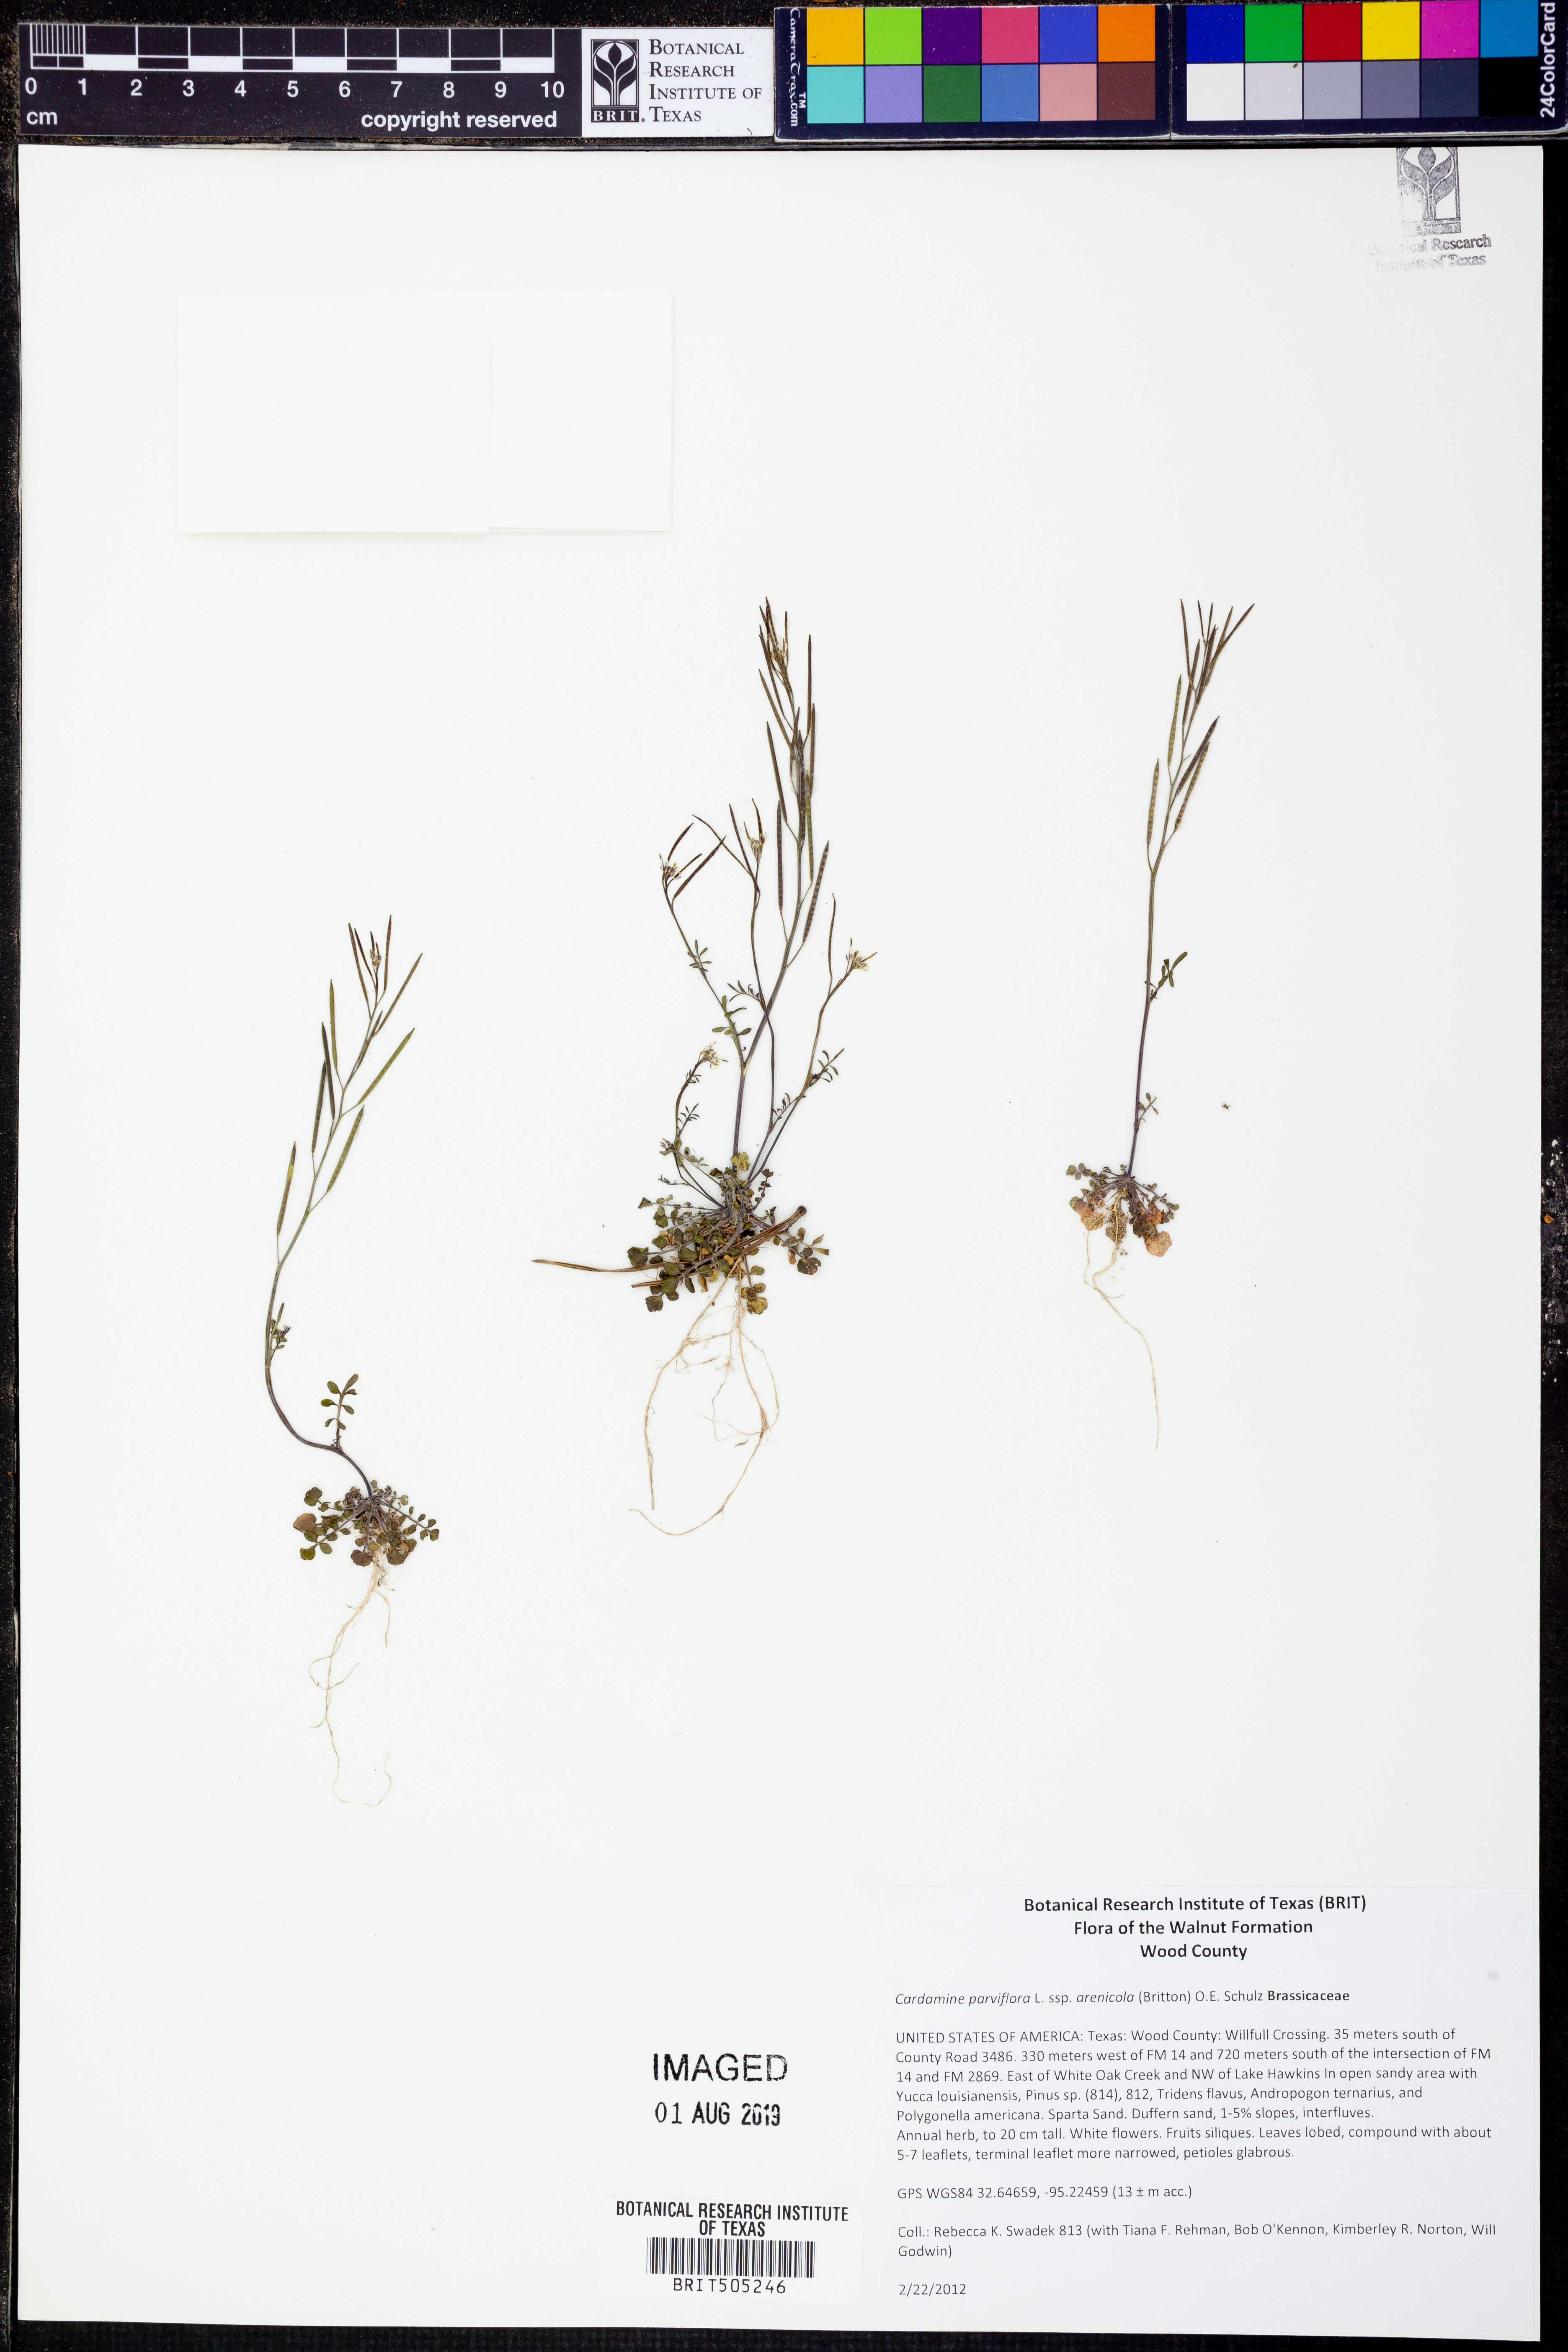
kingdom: Plantae
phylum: Tracheophyta
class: Magnoliopsida
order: Brassicales
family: Brassicaceae
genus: Cardamine
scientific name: Cardamine parviflora
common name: Sand bittercress
